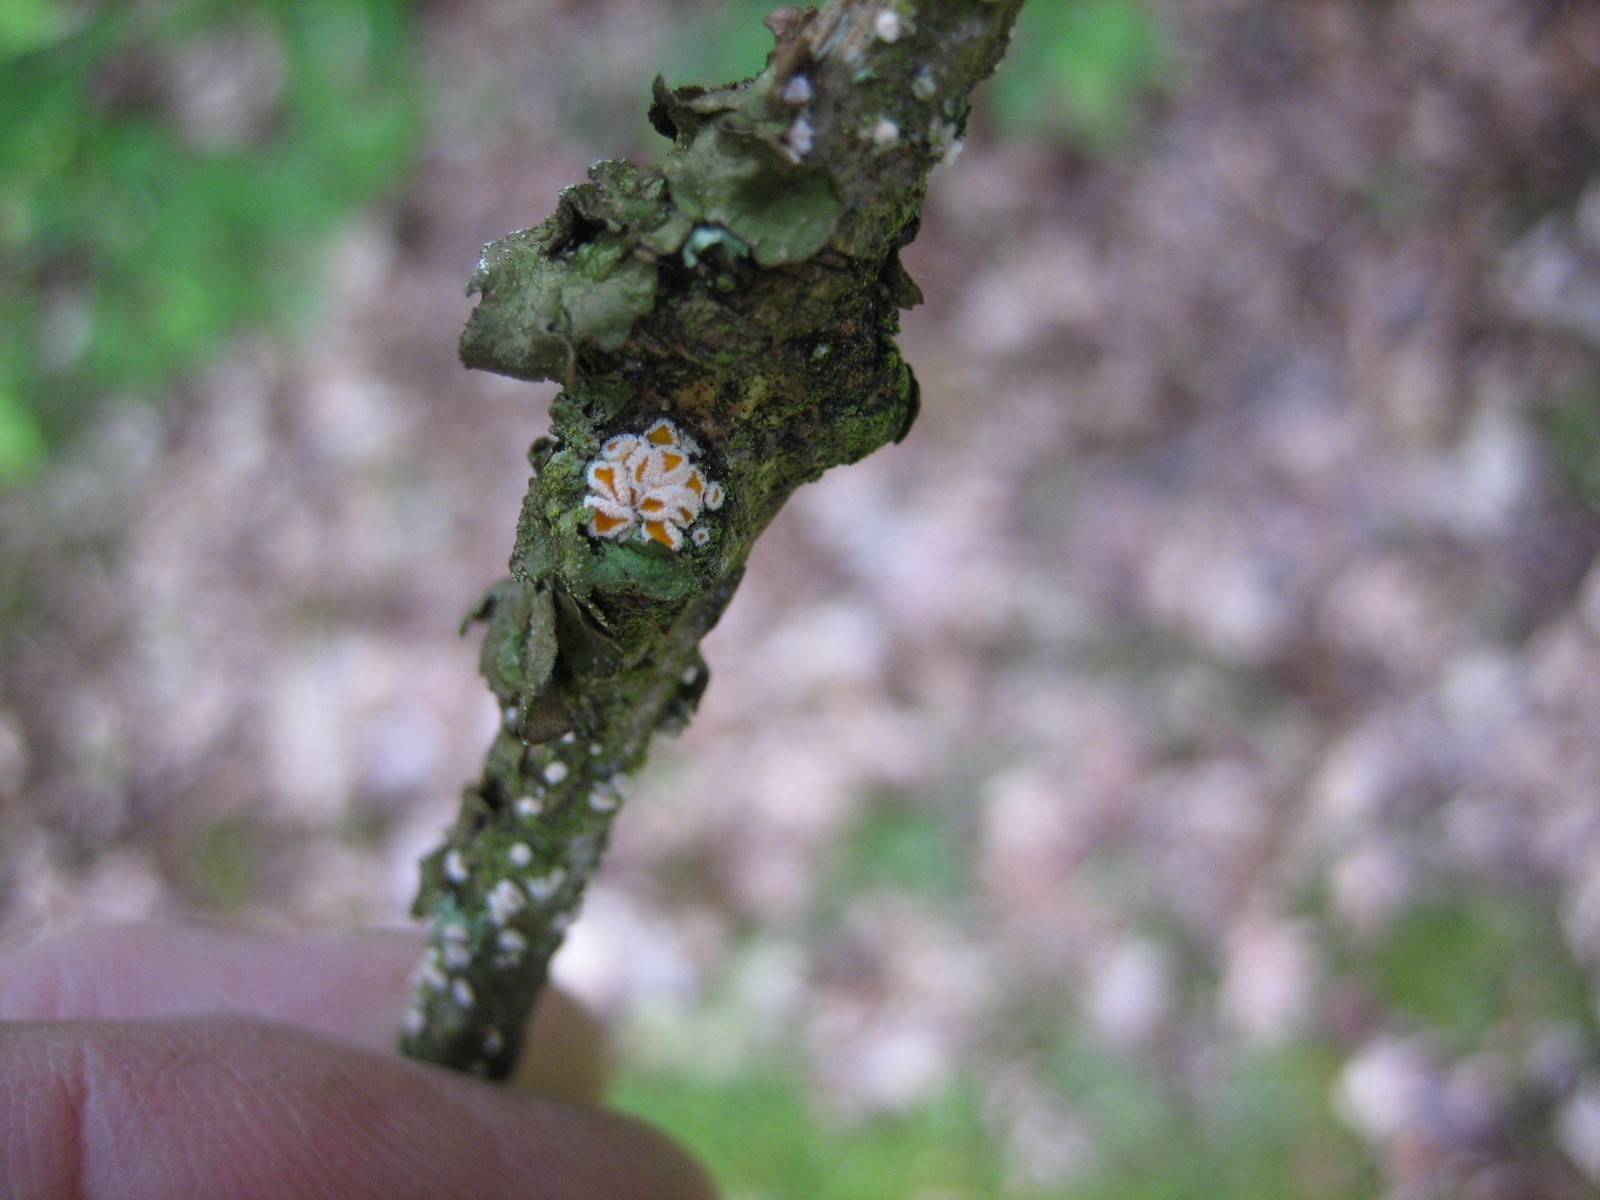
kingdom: Fungi
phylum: Ascomycota
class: Leotiomycetes
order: Helotiales
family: Lachnaceae
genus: Capitotricha
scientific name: Capitotricha bicolor
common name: prægtig frynseskive
